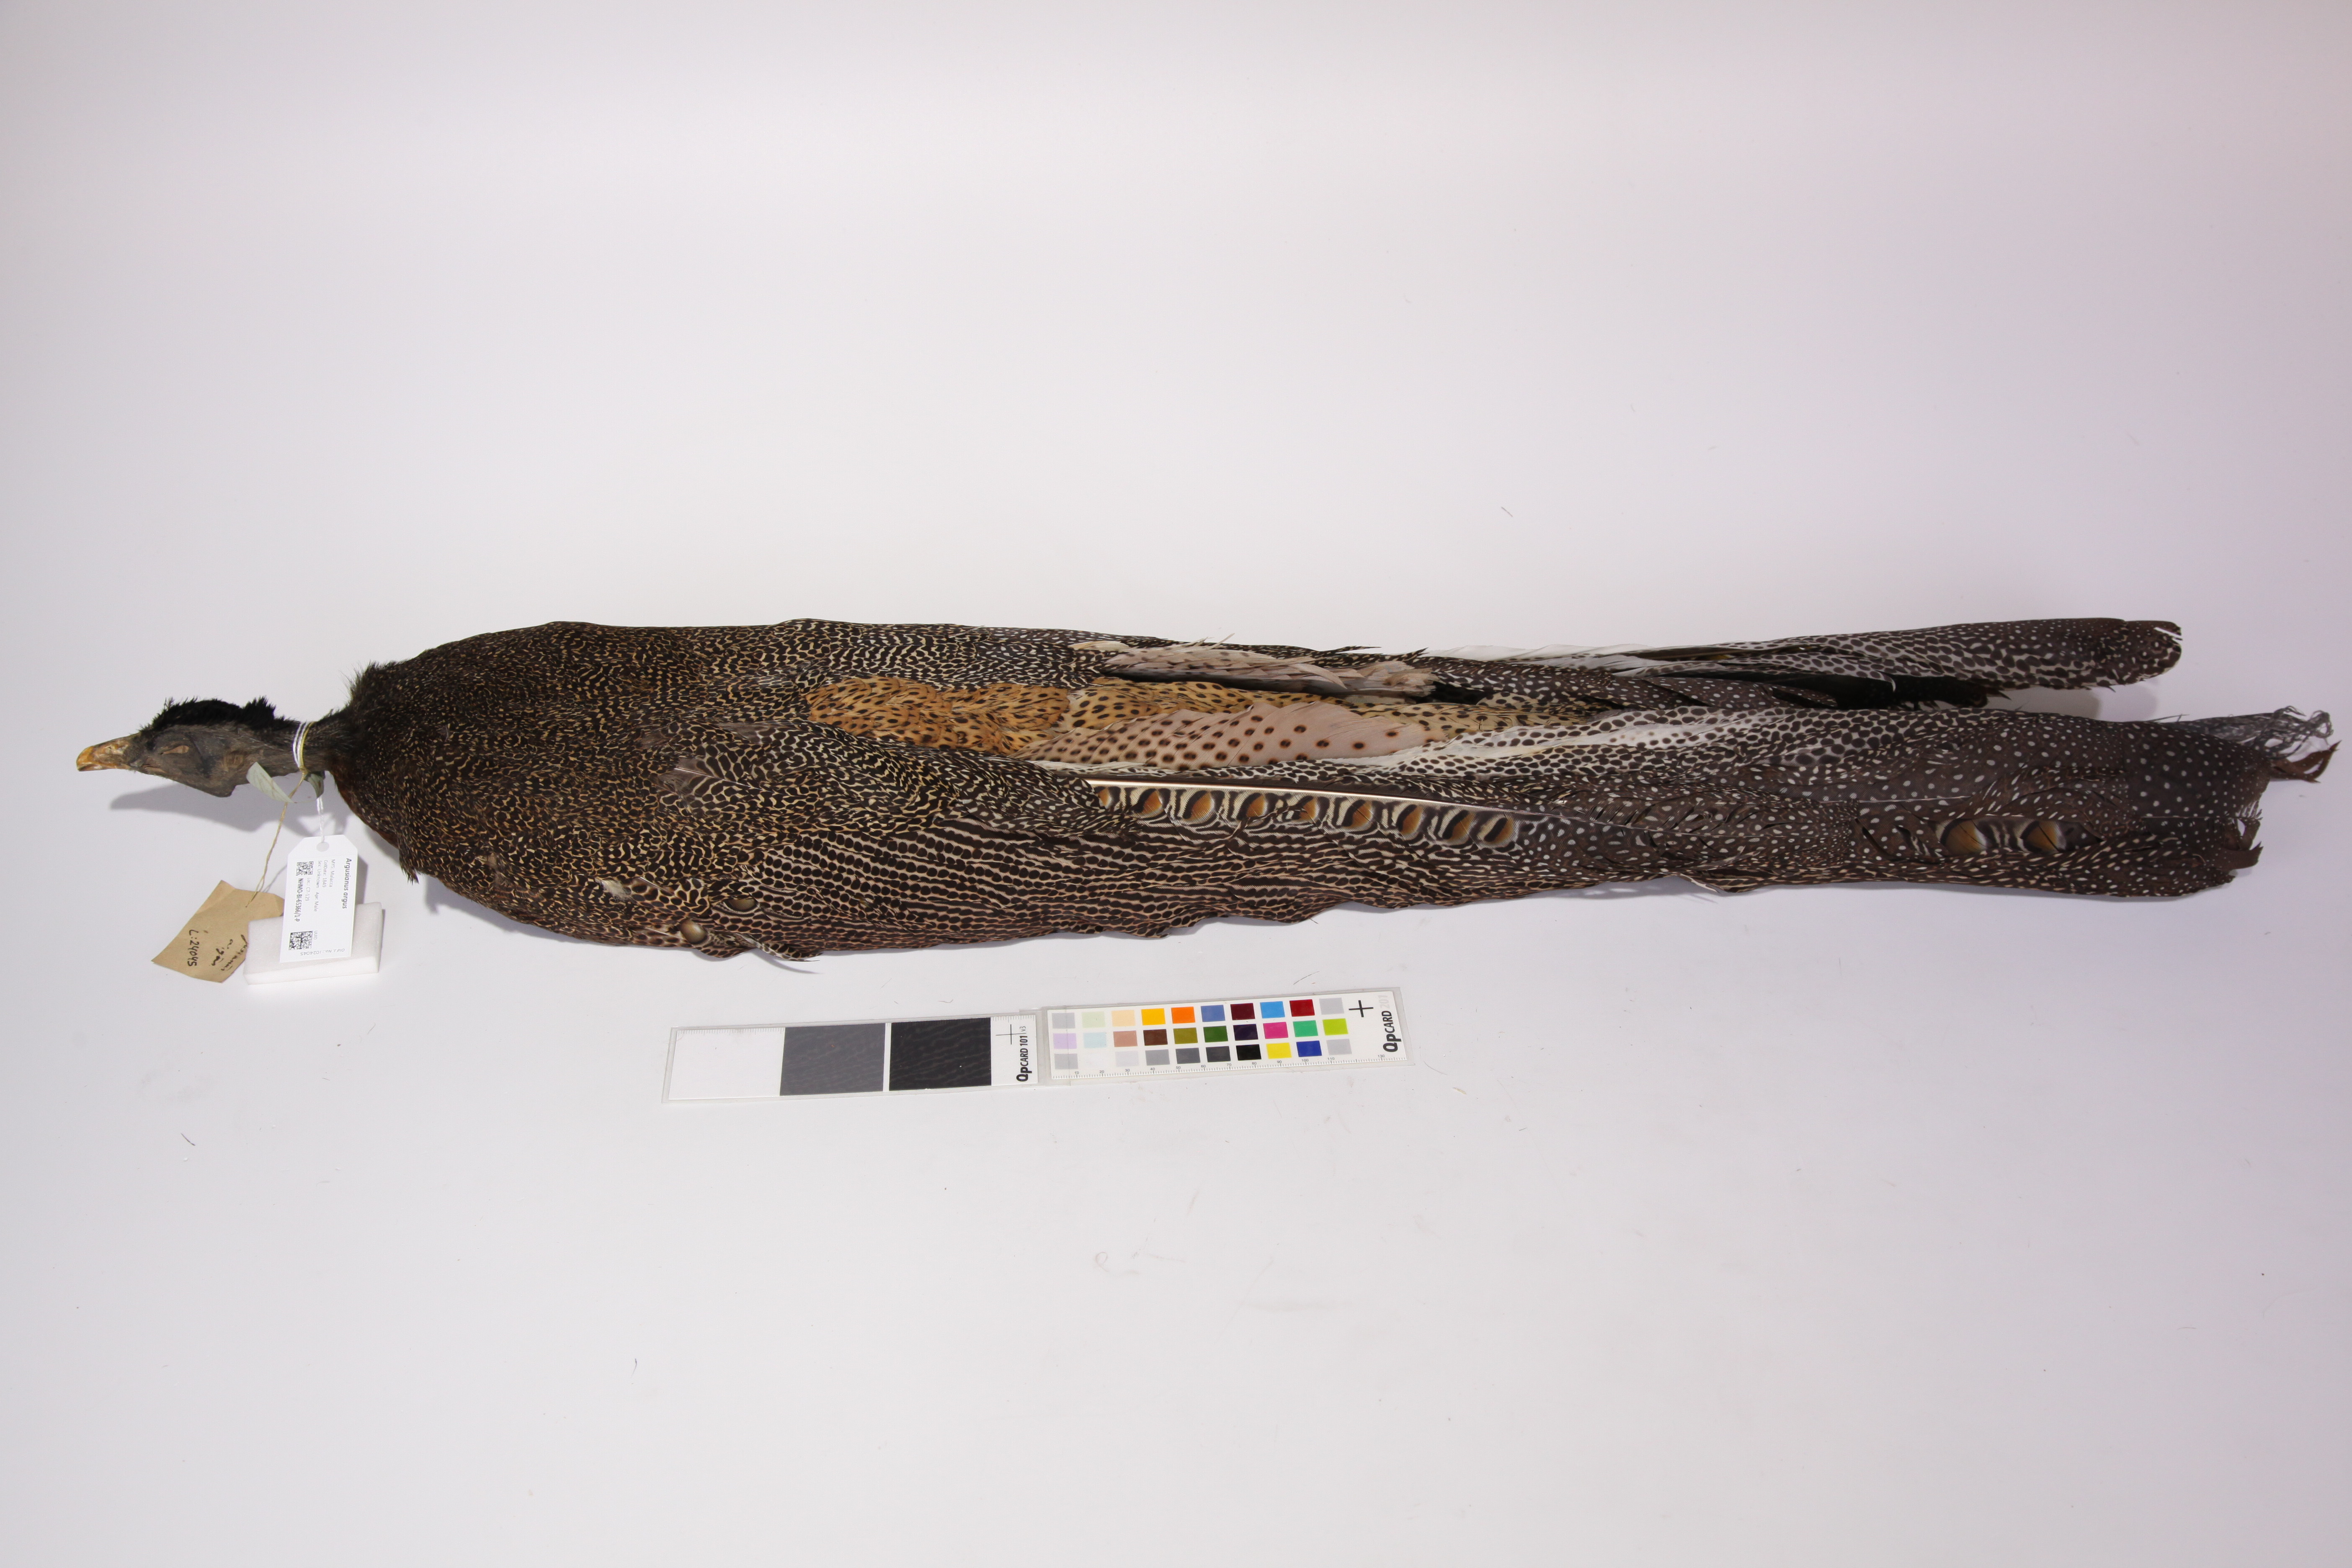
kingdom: Animalia
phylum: Chordata
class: Aves
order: Galliformes
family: Phasianidae
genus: Argusianus
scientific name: Argusianus argus
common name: Great argus
